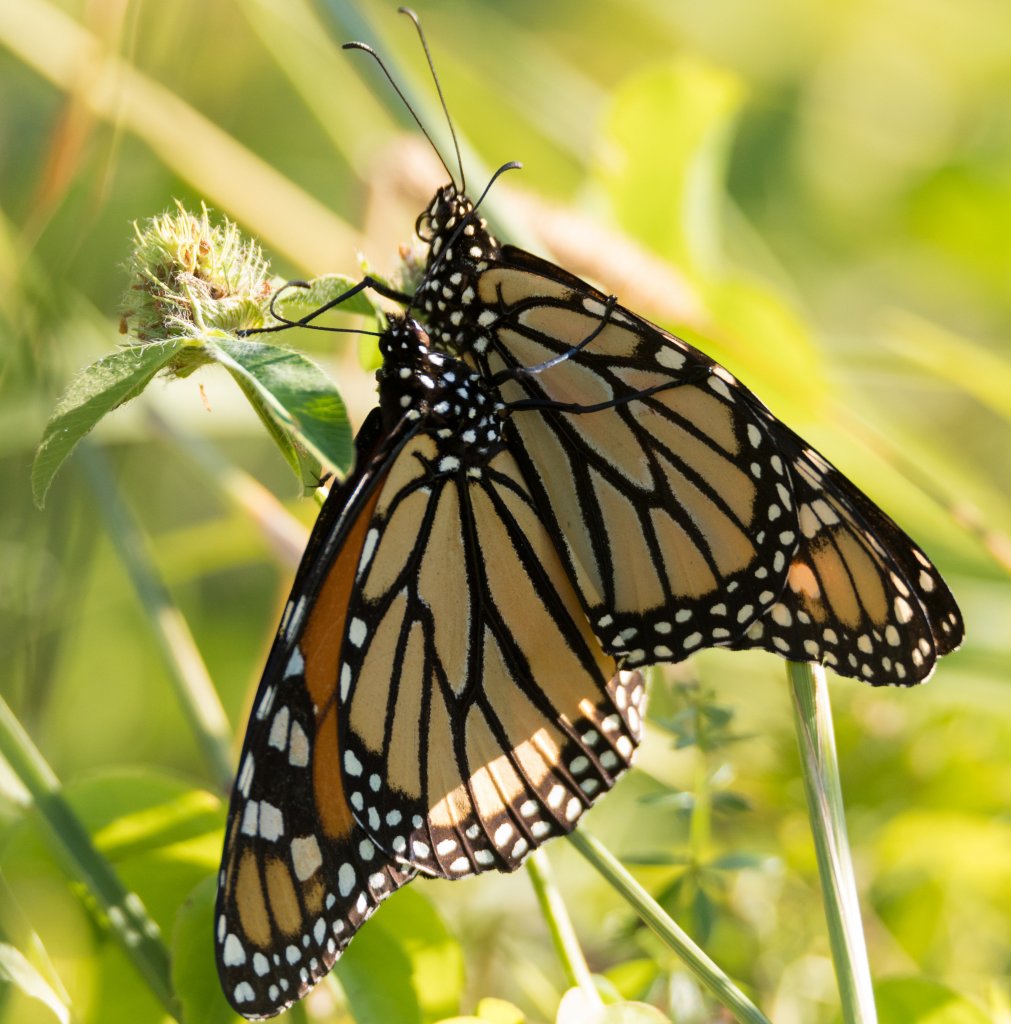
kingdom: Animalia
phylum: Arthropoda
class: Insecta
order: Lepidoptera
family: Nymphalidae
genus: Danaus
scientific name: Danaus plexippus
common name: Monarch
